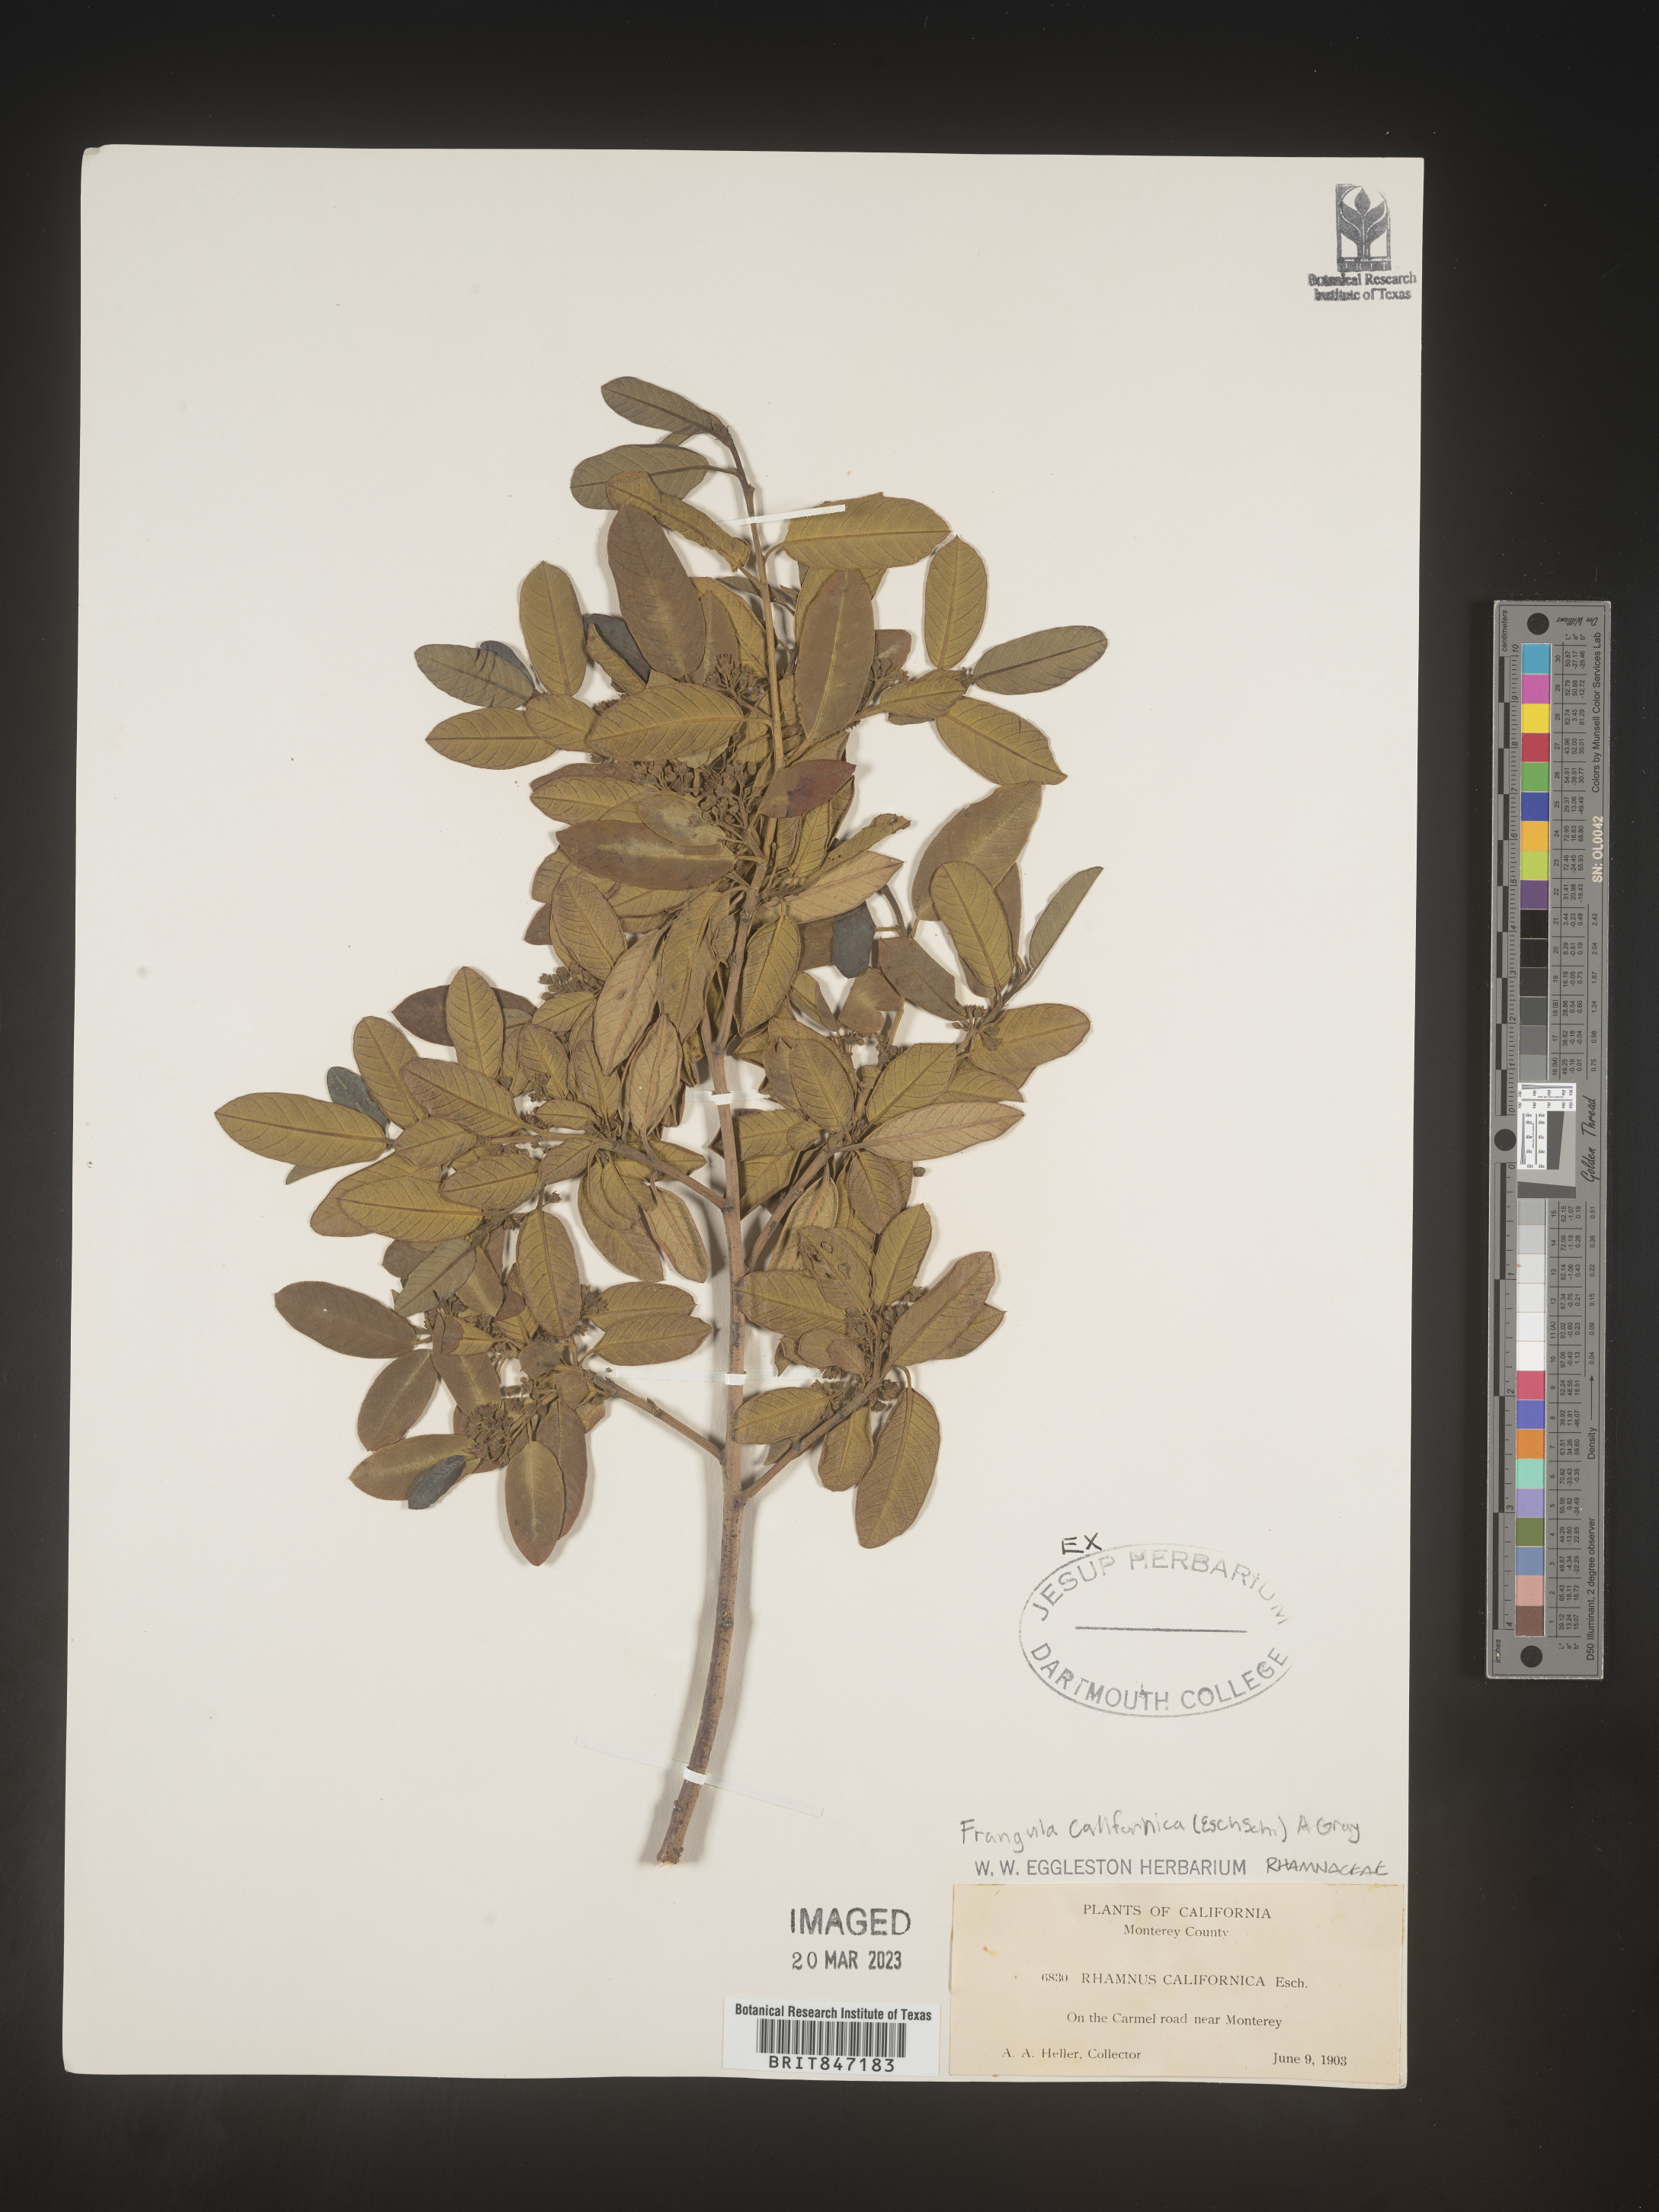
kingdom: Plantae
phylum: Tracheophyta
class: Magnoliopsida
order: Rosales
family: Rhamnaceae
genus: Frangula
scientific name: Frangula
